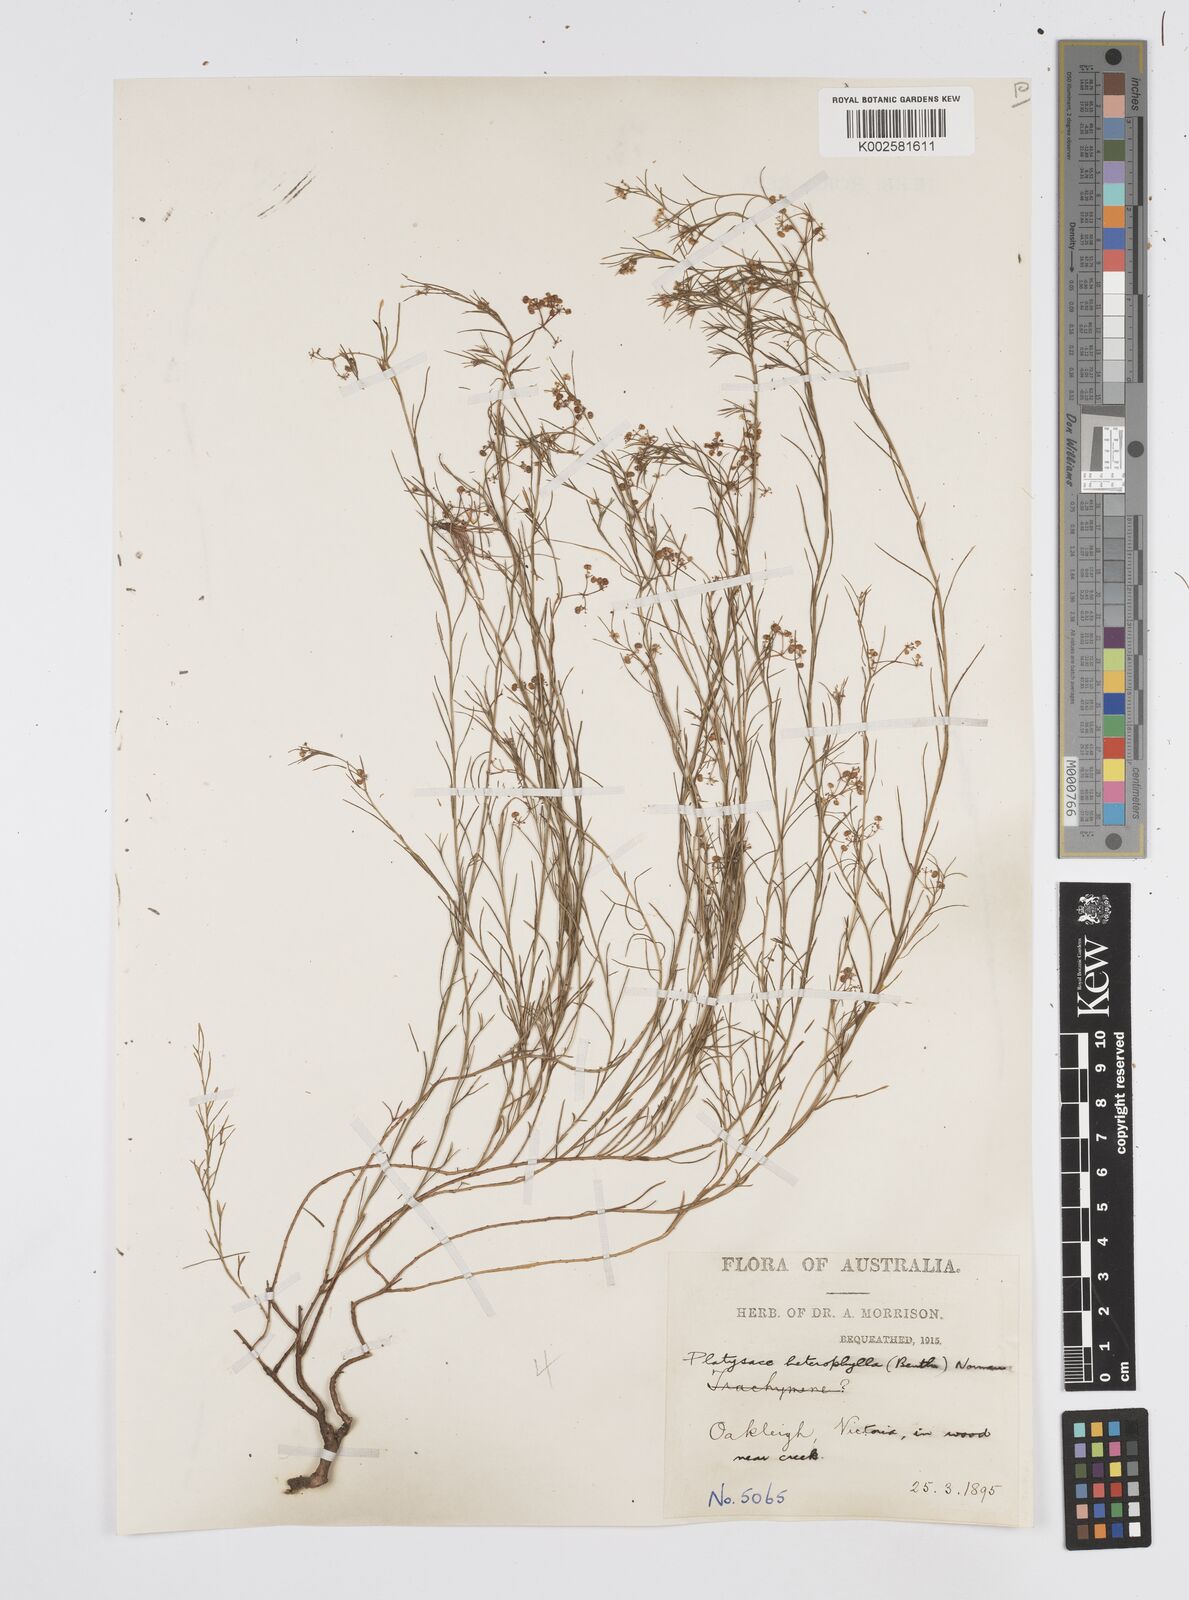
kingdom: Plantae
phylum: Tracheophyta
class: Magnoliopsida
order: Apiales
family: Apiaceae
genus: Platysace
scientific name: Platysace heterophylla
